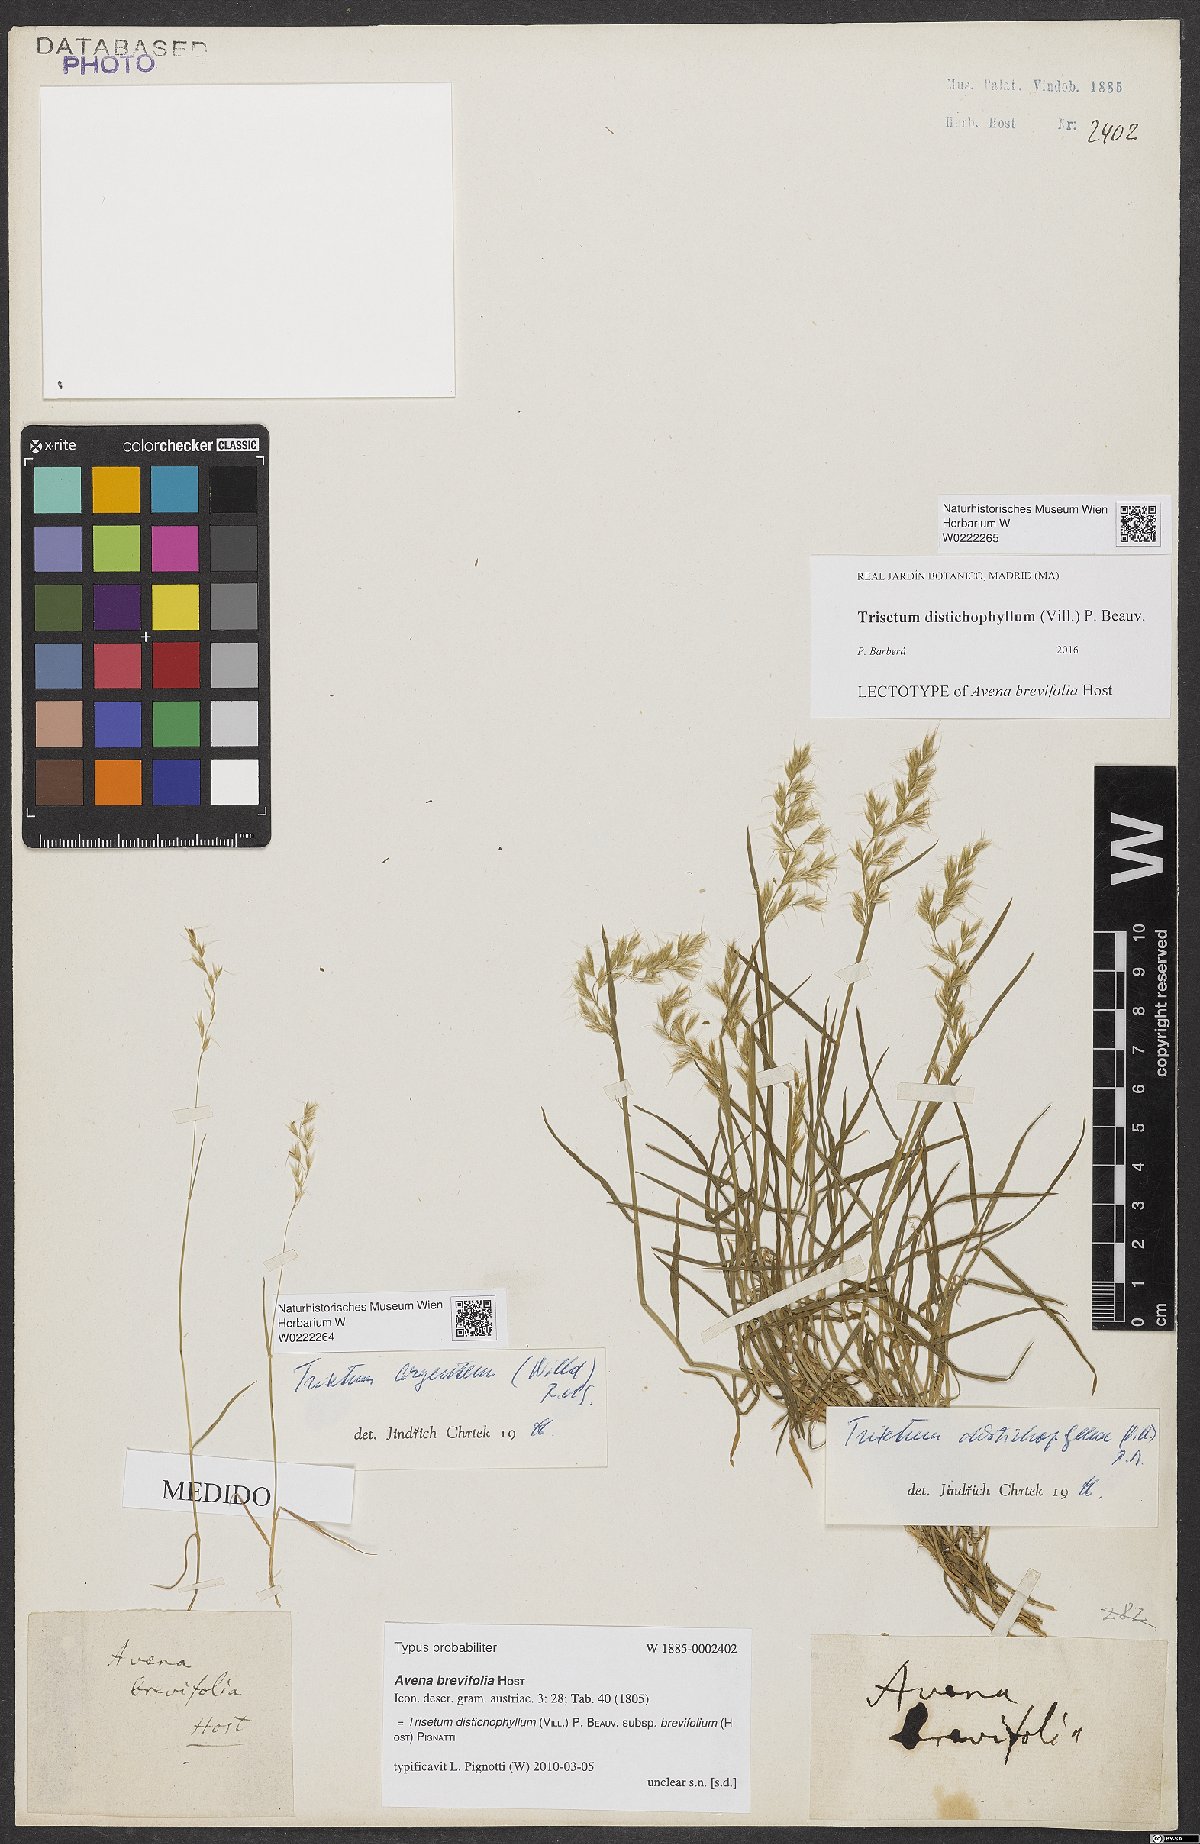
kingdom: Plantae
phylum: Tracheophyta
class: Liliopsida
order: Poales
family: Poaceae
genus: Acrospelion
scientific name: Acrospelion distichophyllum
